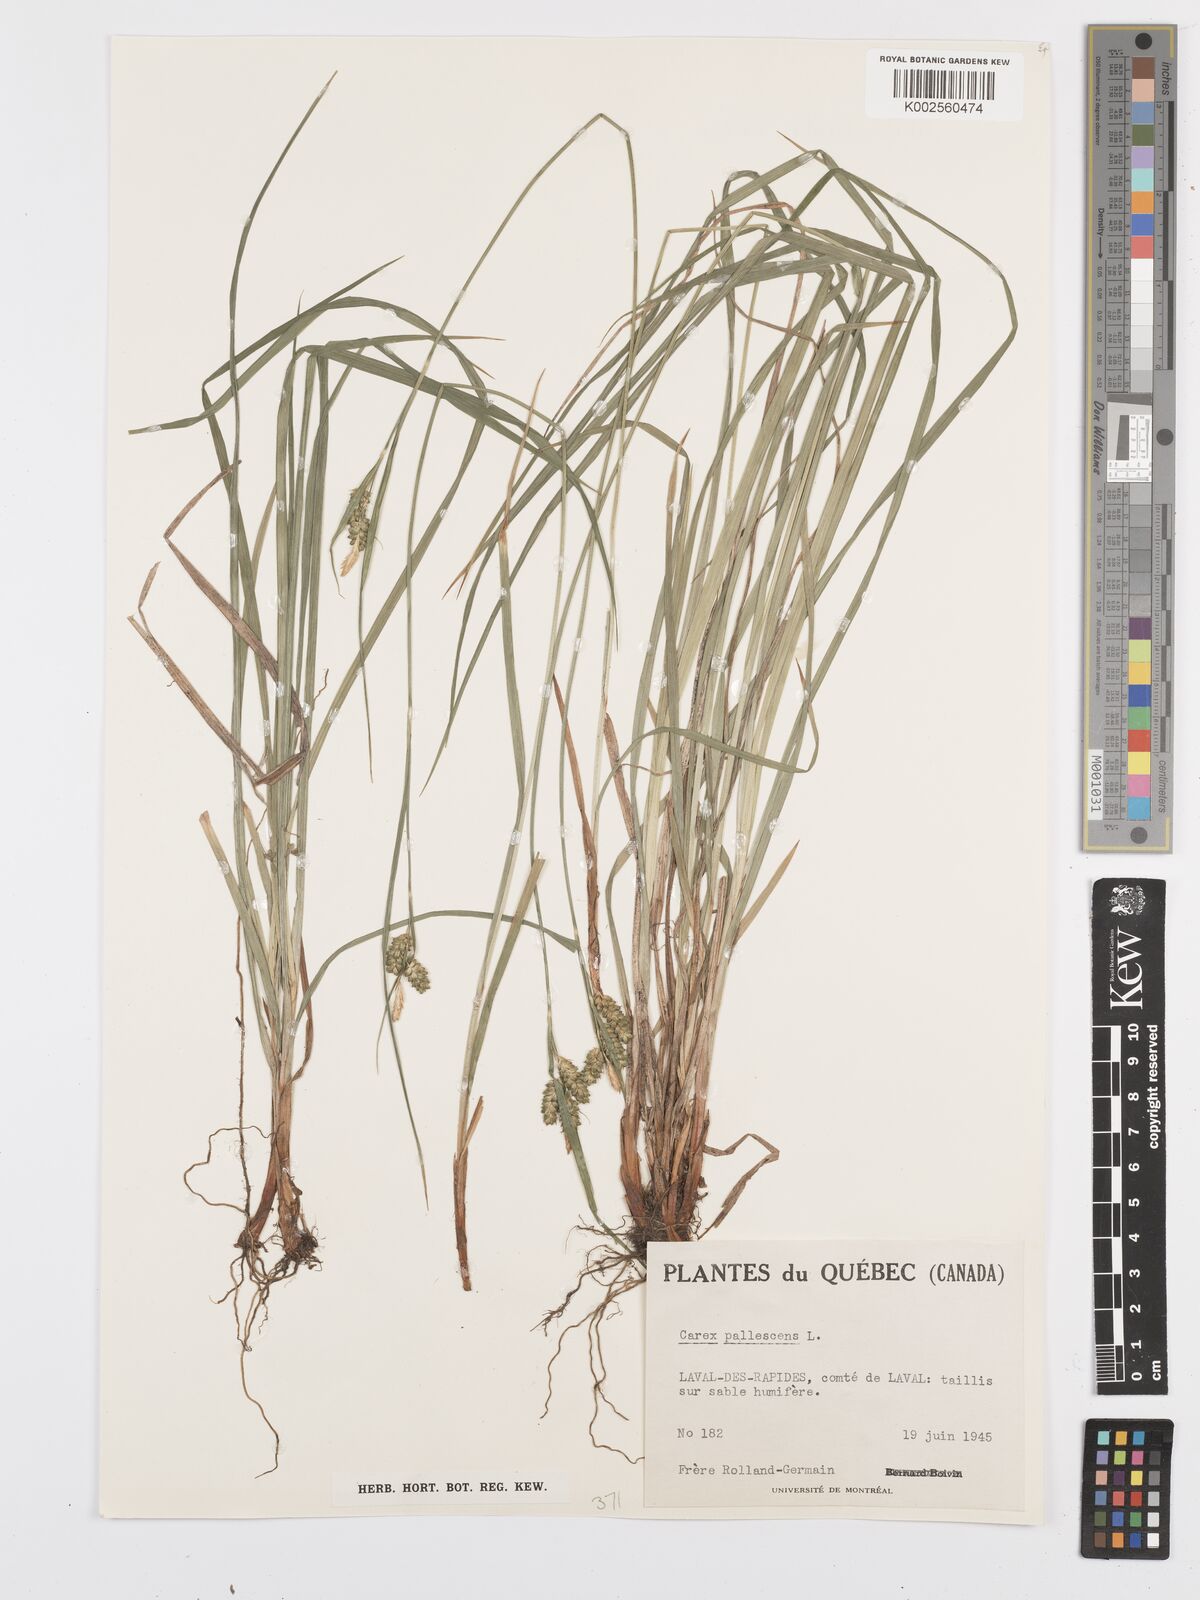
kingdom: Plantae
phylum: Tracheophyta
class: Liliopsida
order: Poales
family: Cyperaceae
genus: Carex
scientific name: Carex pallescens
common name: Pale sedge
